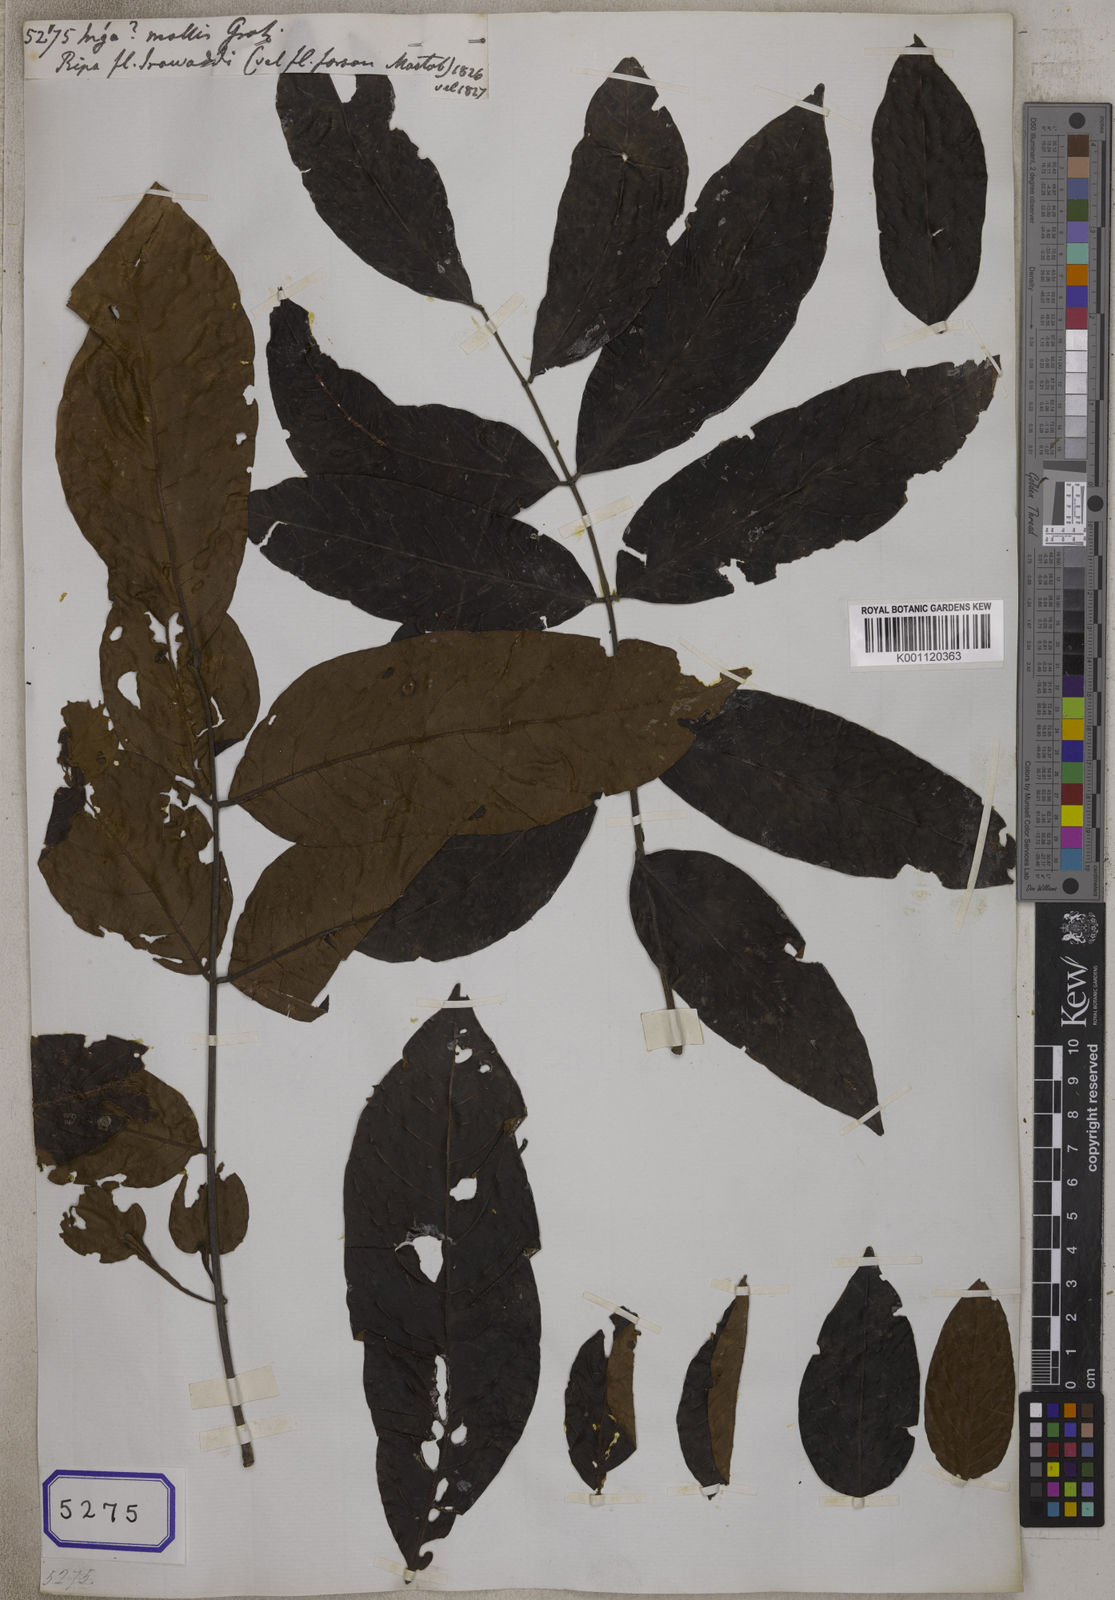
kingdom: Plantae
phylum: Tracheophyta
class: Magnoliopsida
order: Fabales
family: Fabaceae
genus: Inga
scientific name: Inga mollis
